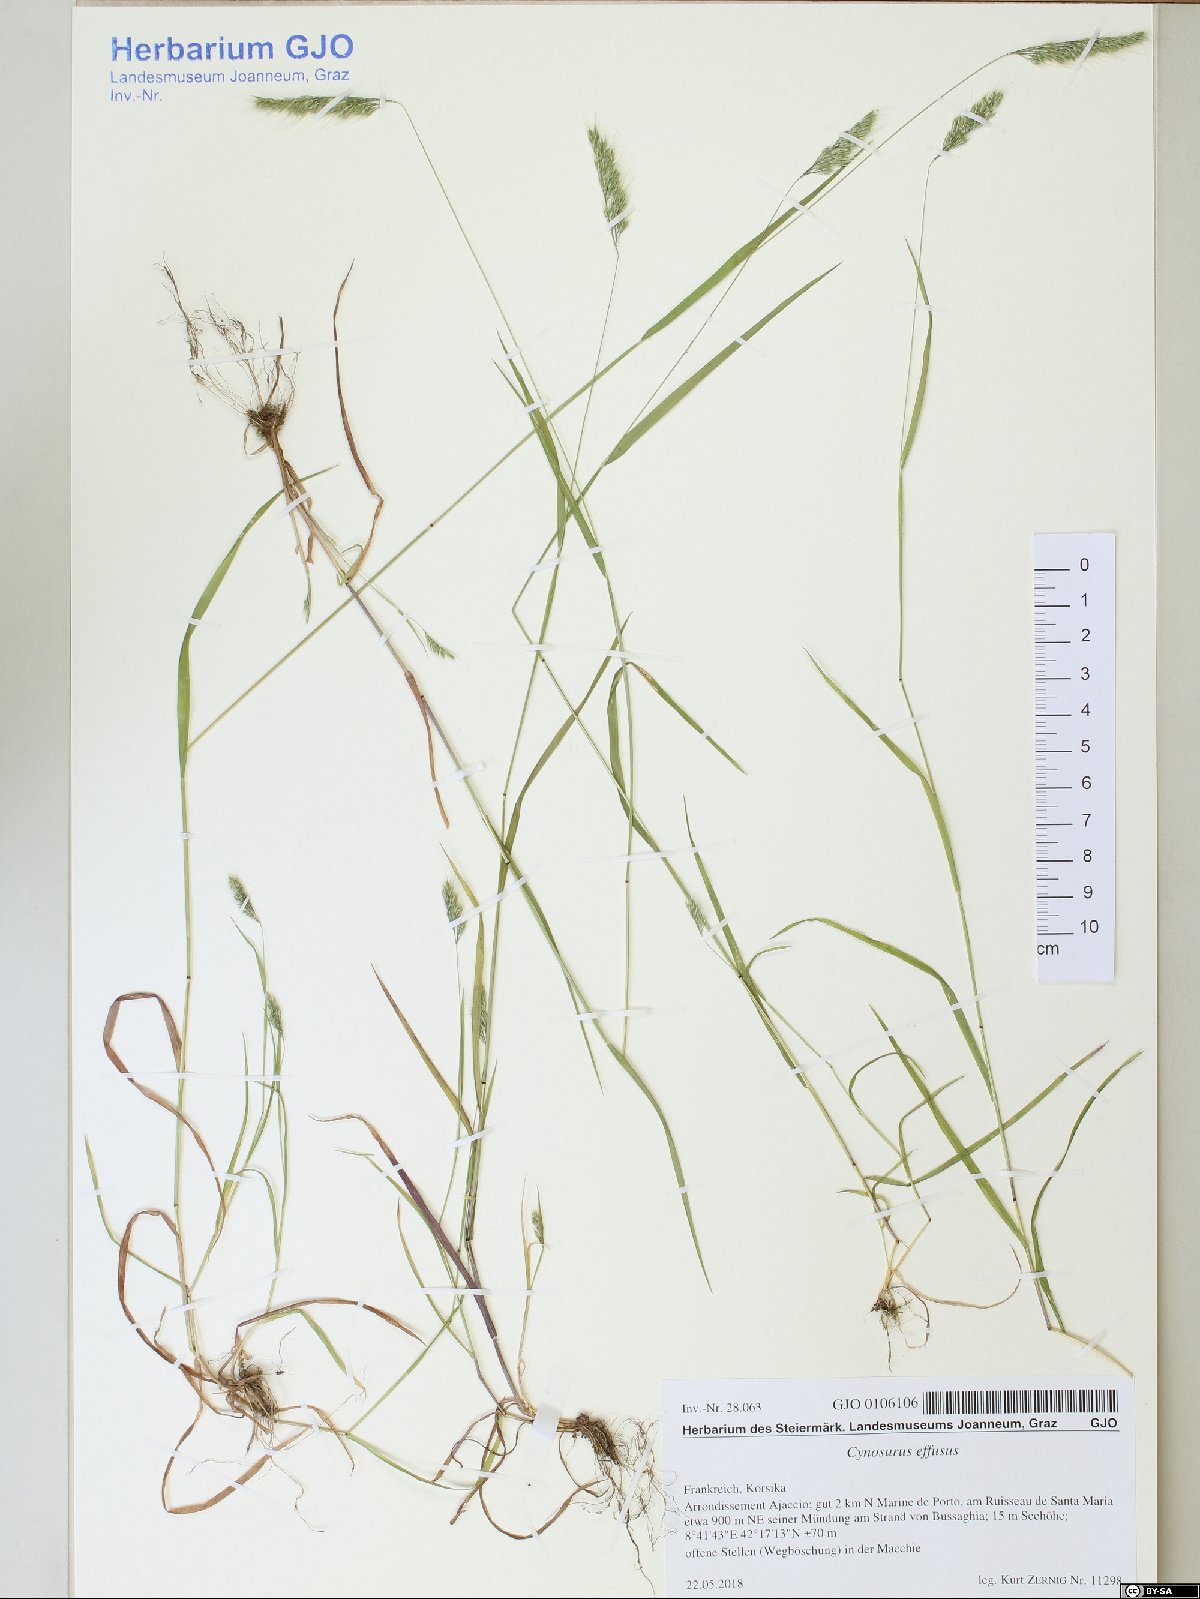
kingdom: Plantae
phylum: Tracheophyta
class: Liliopsida
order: Poales
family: Poaceae
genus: Cynosurus
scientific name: Cynosurus effusus
